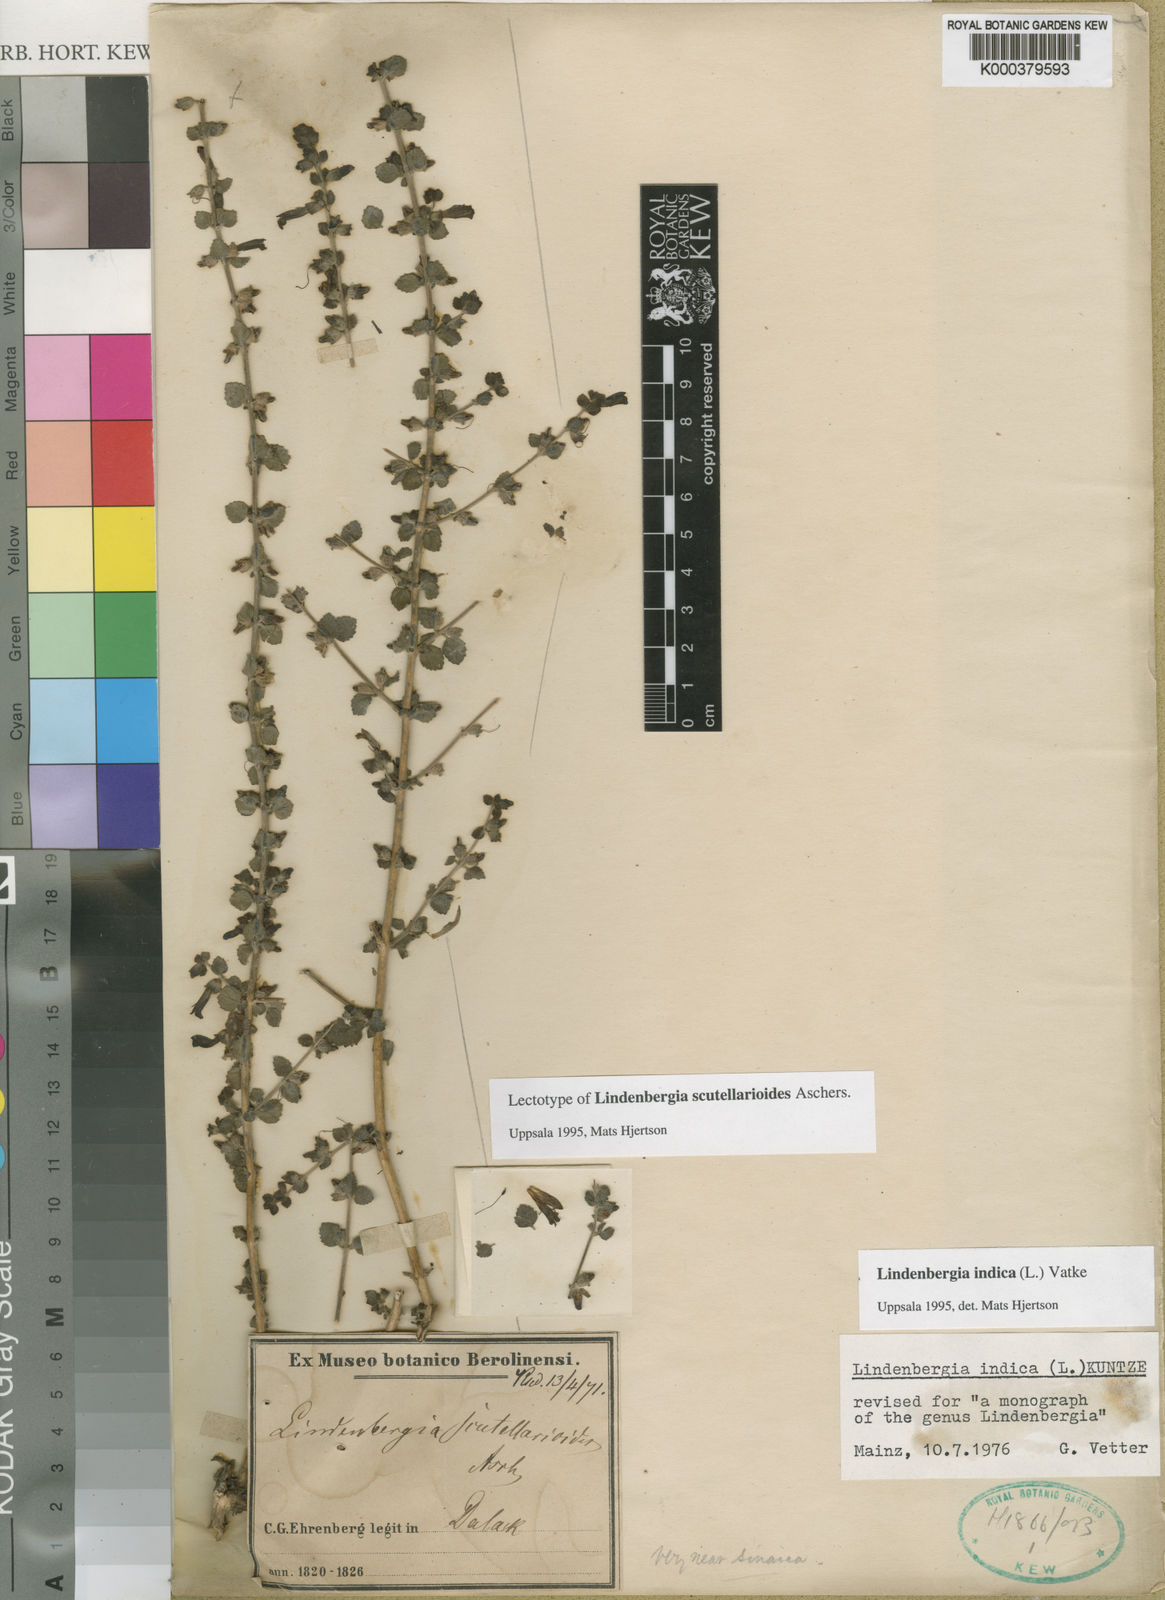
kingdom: Plantae
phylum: Tracheophyta
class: Magnoliopsida
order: Lamiales
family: Orobanchaceae
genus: Lindenbergia
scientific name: Lindenbergia indica
